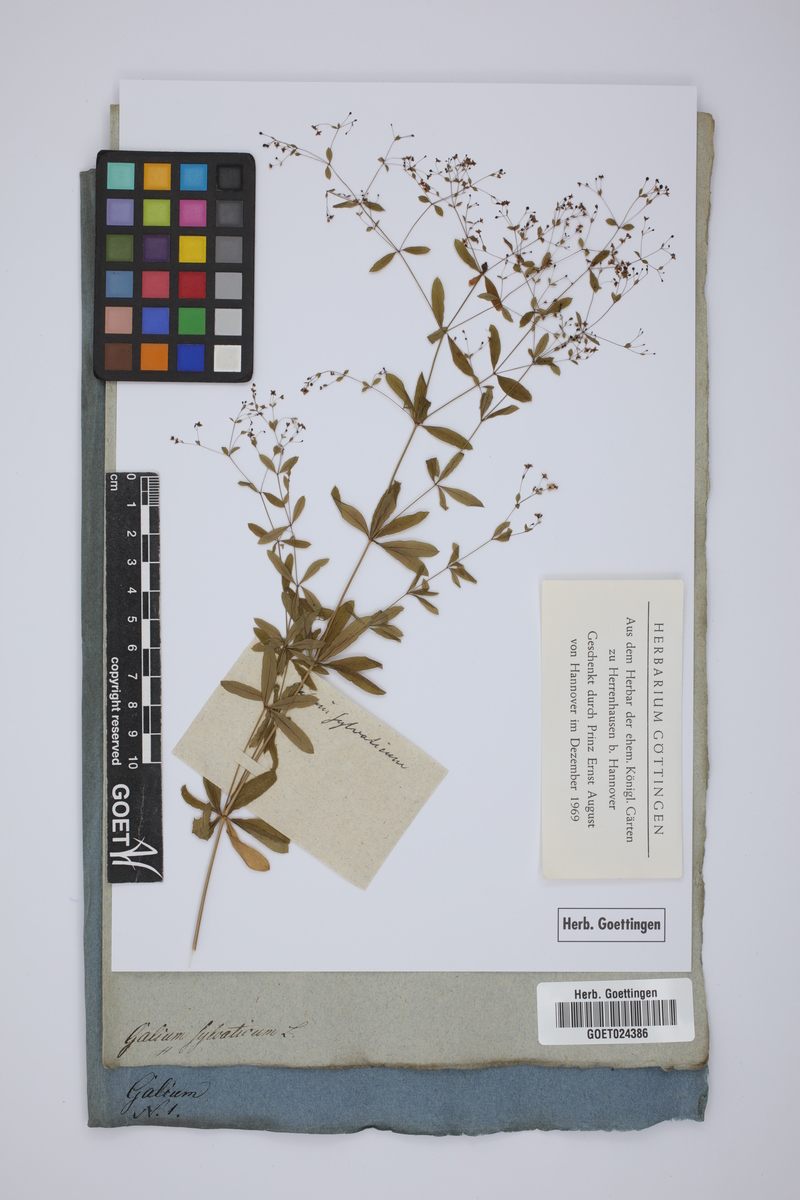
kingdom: Plantae
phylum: Tracheophyta
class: Magnoliopsida
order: Gentianales
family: Rubiaceae
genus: Galium
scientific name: Galium sylvaticum
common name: Wood bedstraw
